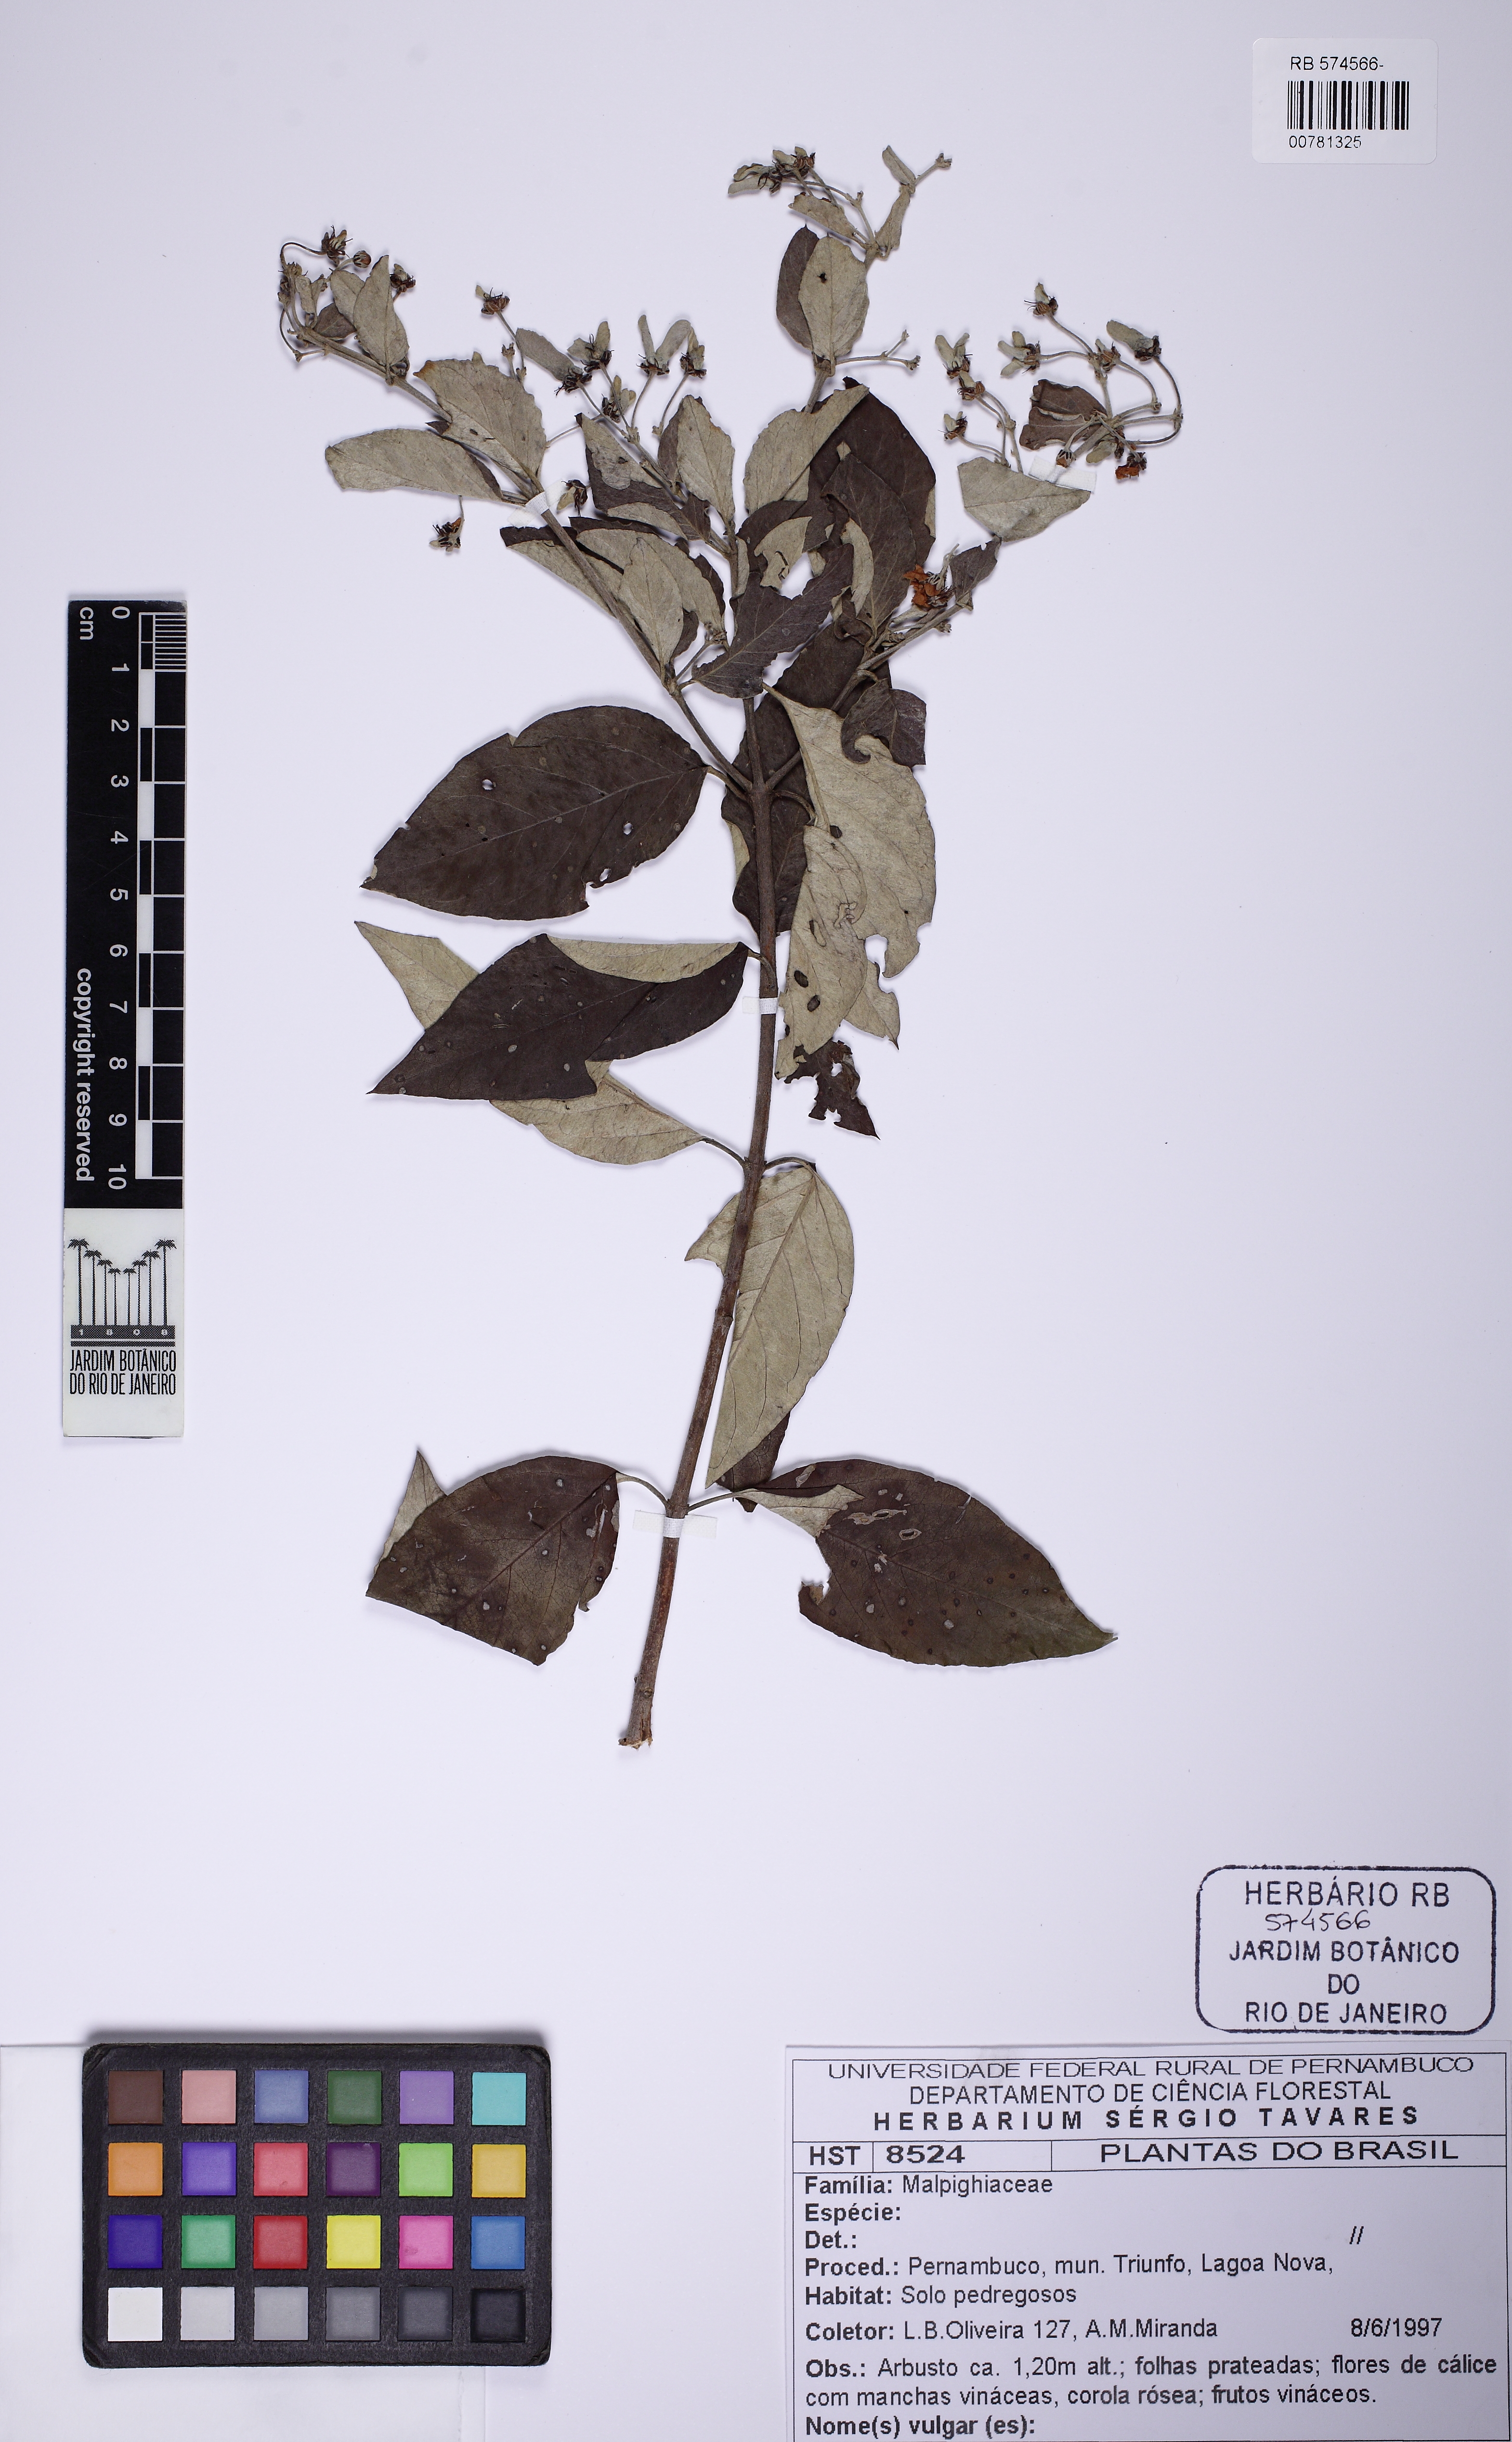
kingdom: Plantae
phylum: Tracheophyta
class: Magnoliopsida
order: Malpighiales
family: Malpighiaceae
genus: Banisteriopsis
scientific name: Banisteriopsis
